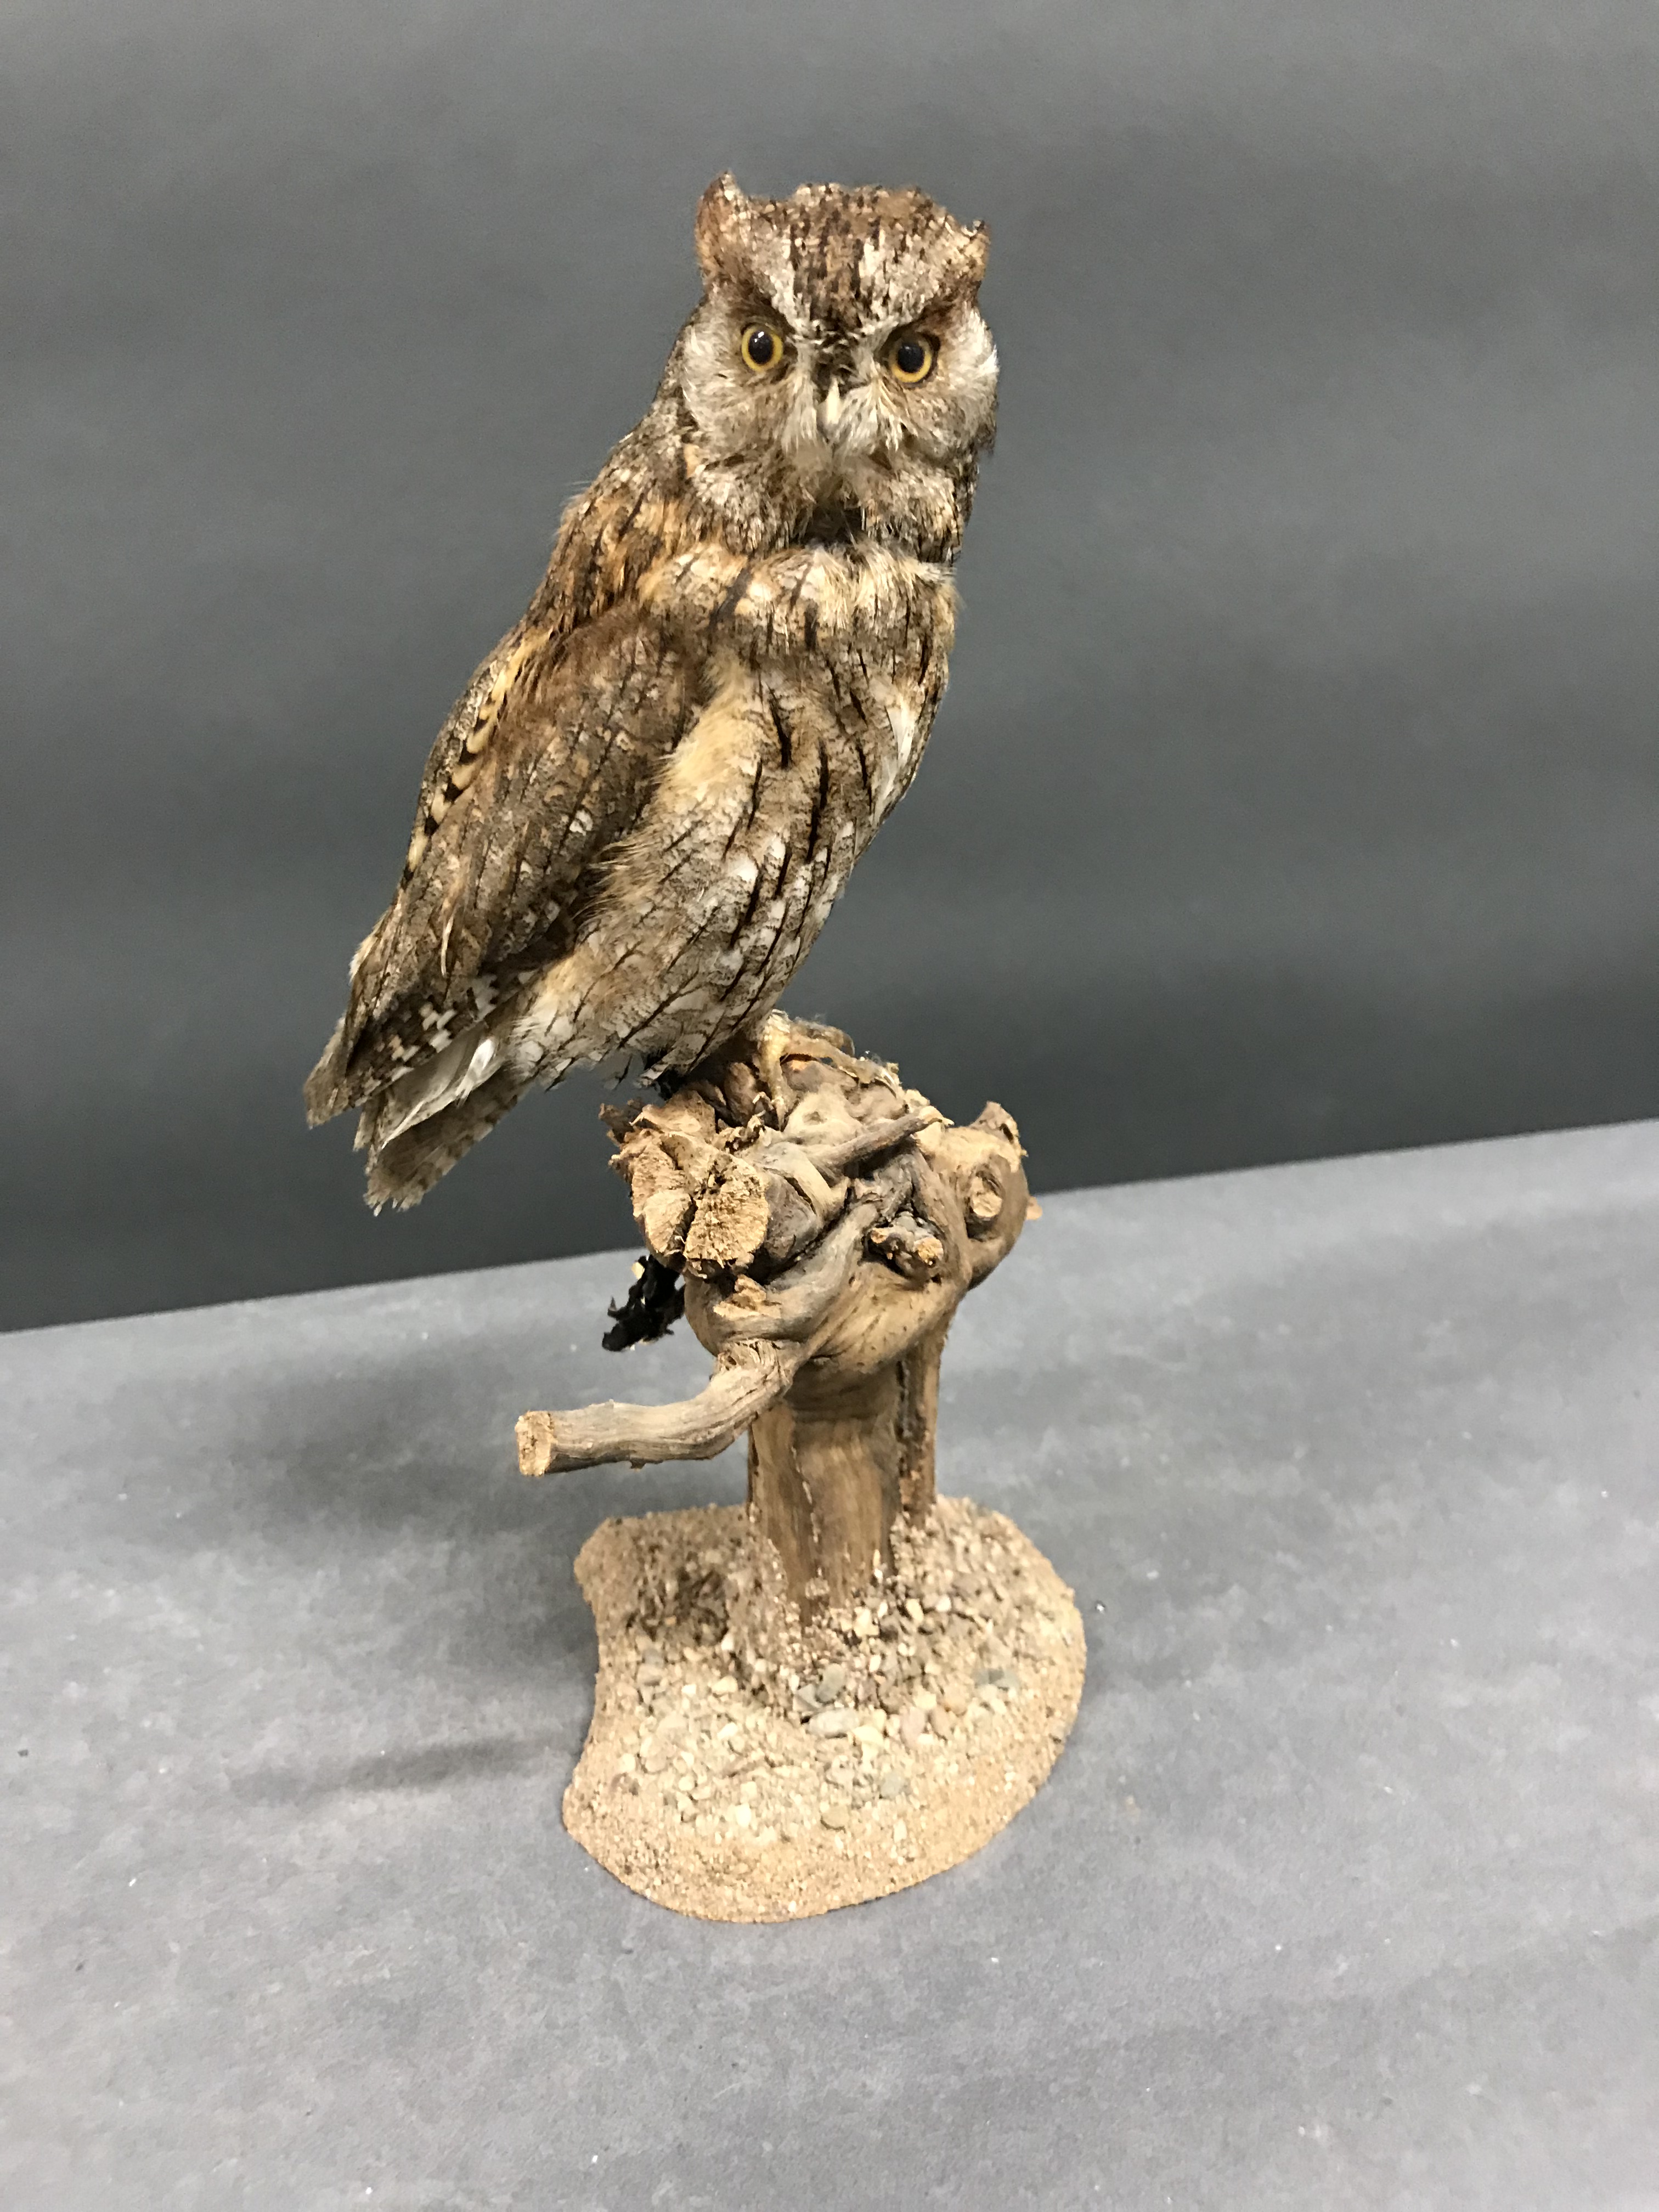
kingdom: Animalia
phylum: Chordata
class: Aves
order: Strigiformes
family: Strigidae
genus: Otus
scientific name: Otus scops
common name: Eurasian scops owl
